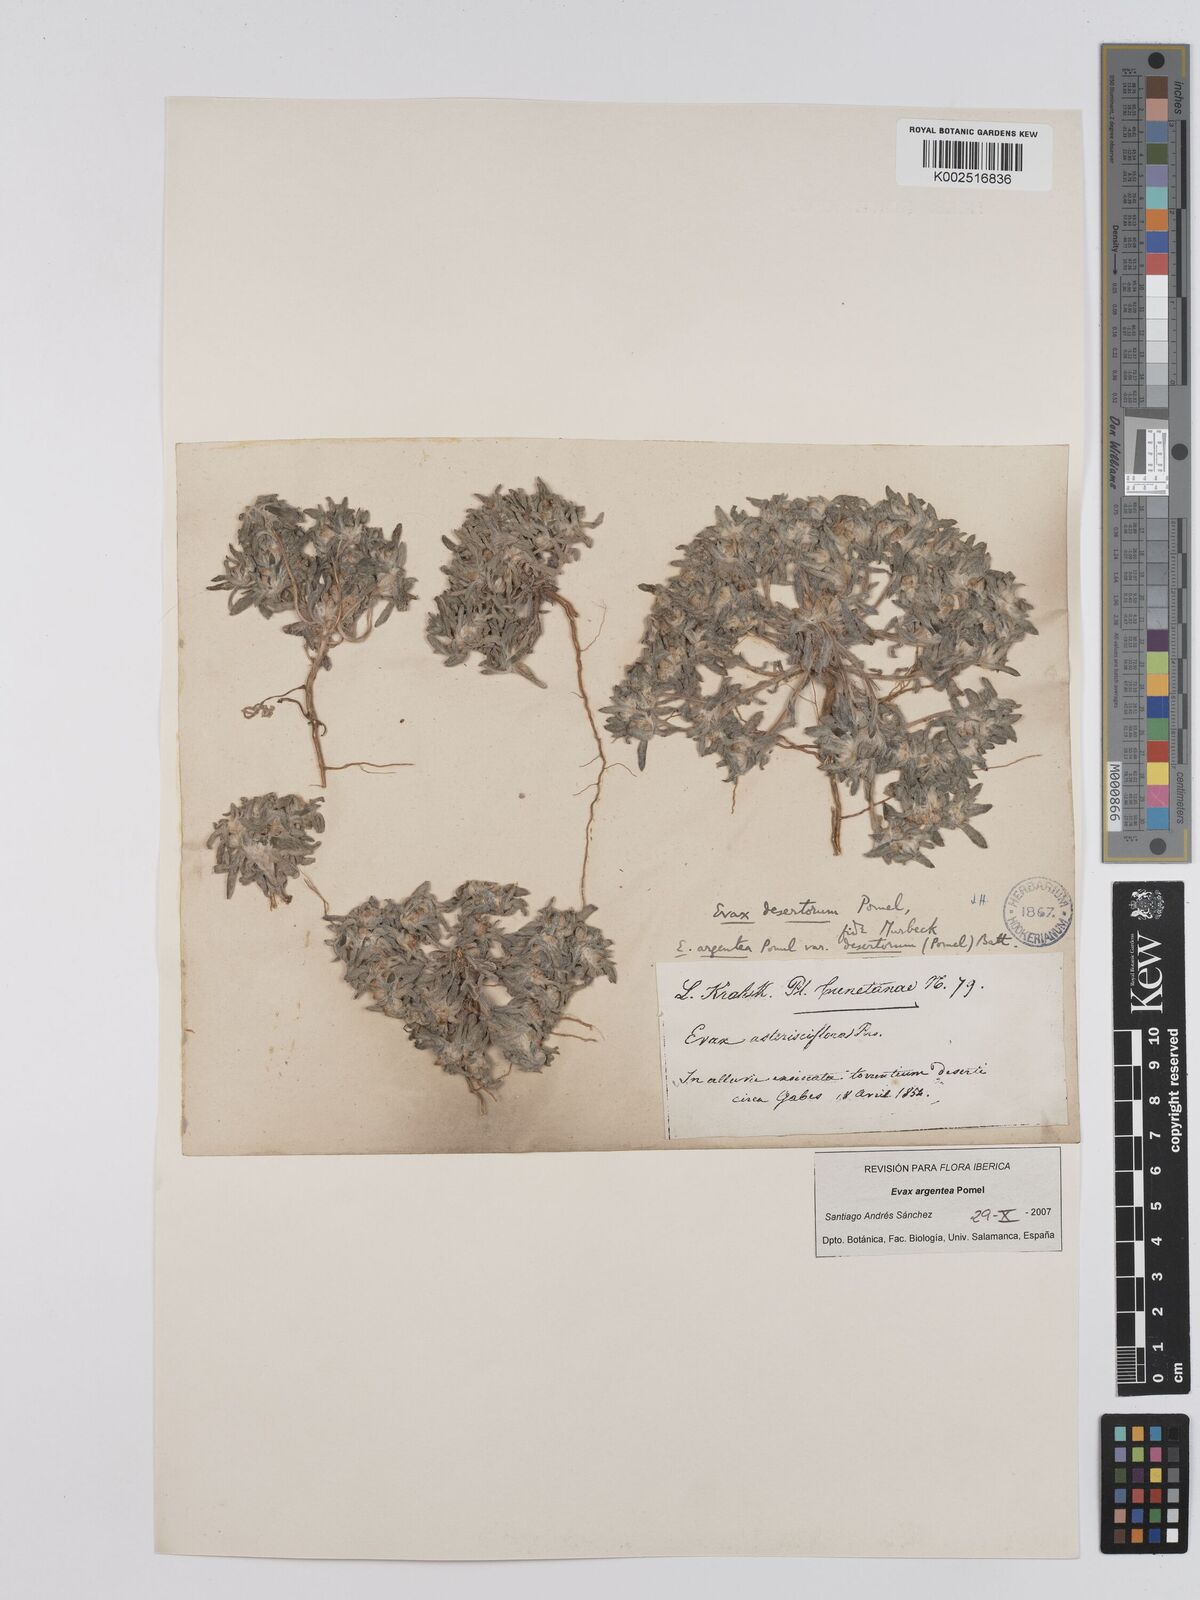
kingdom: Plantae
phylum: Tracheophyta
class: Magnoliopsida
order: Asterales
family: Asteraceae
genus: Filago
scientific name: Filago argentea
